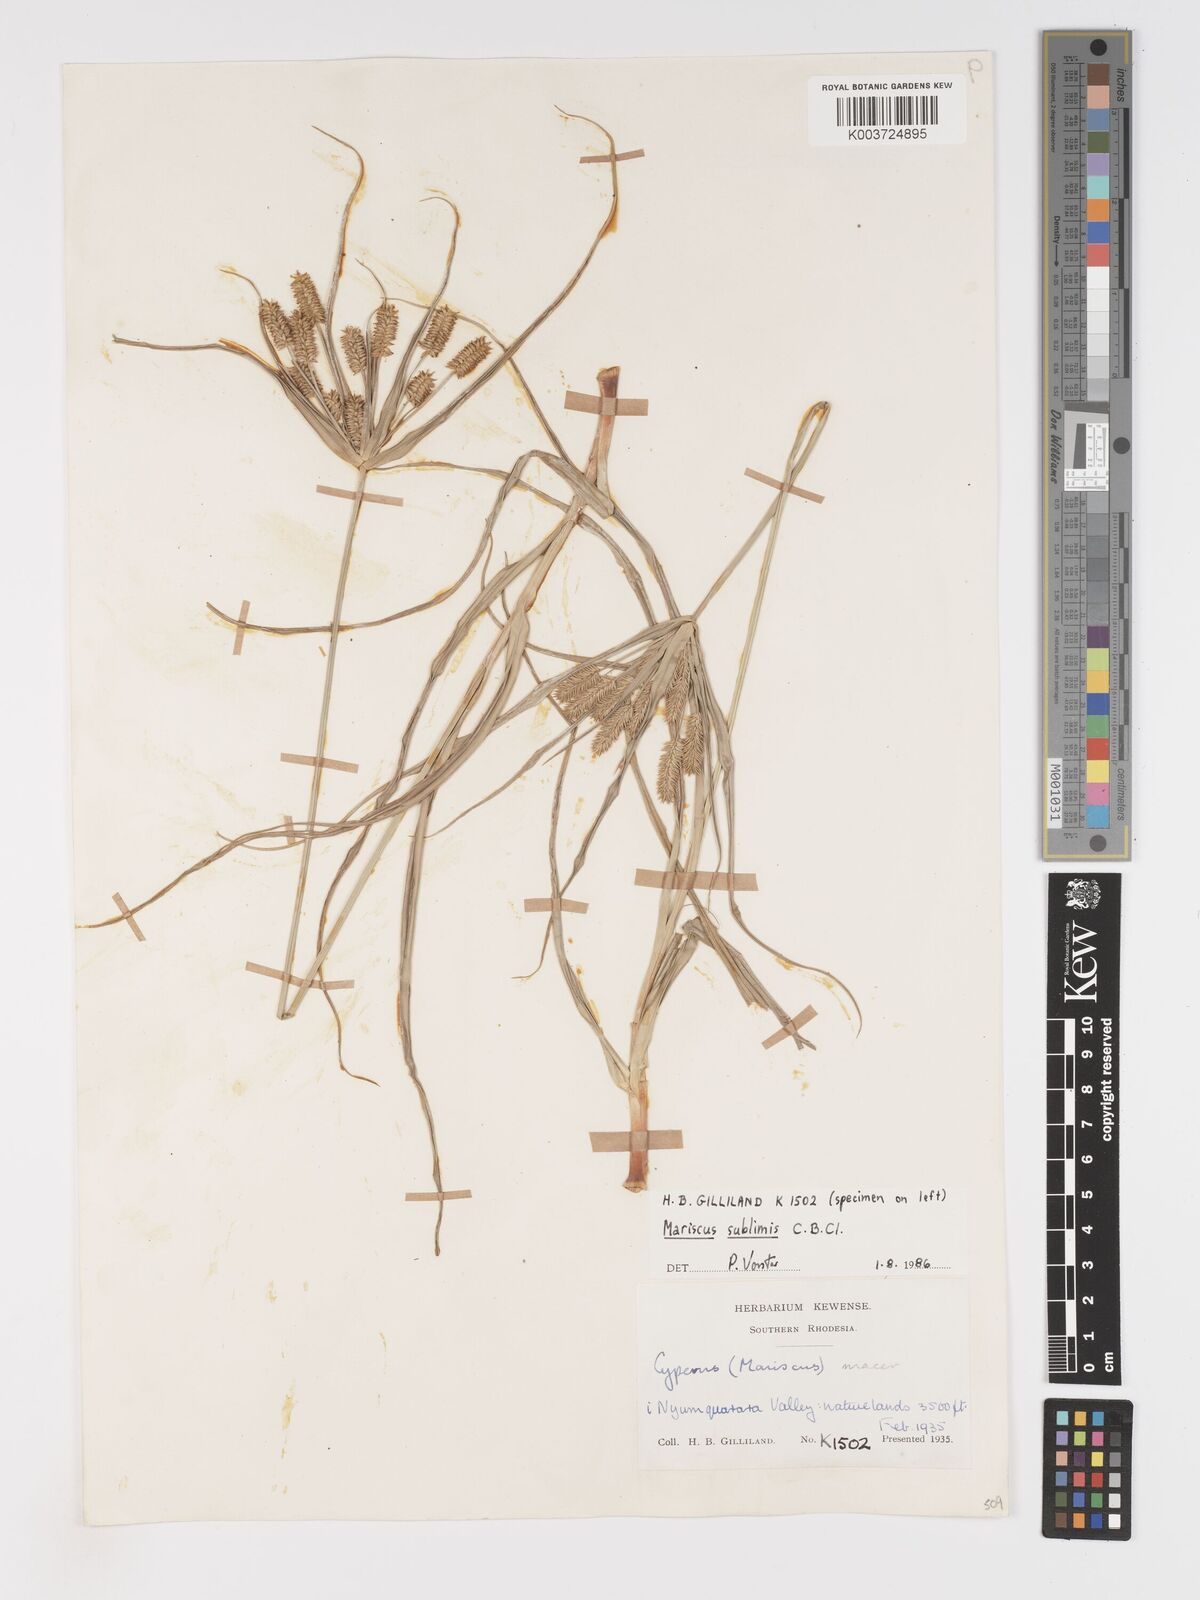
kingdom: Plantae
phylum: Tracheophyta
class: Liliopsida
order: Poales
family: Cyperaceae
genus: Cyperus
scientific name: Cyperus pseudoflavus
